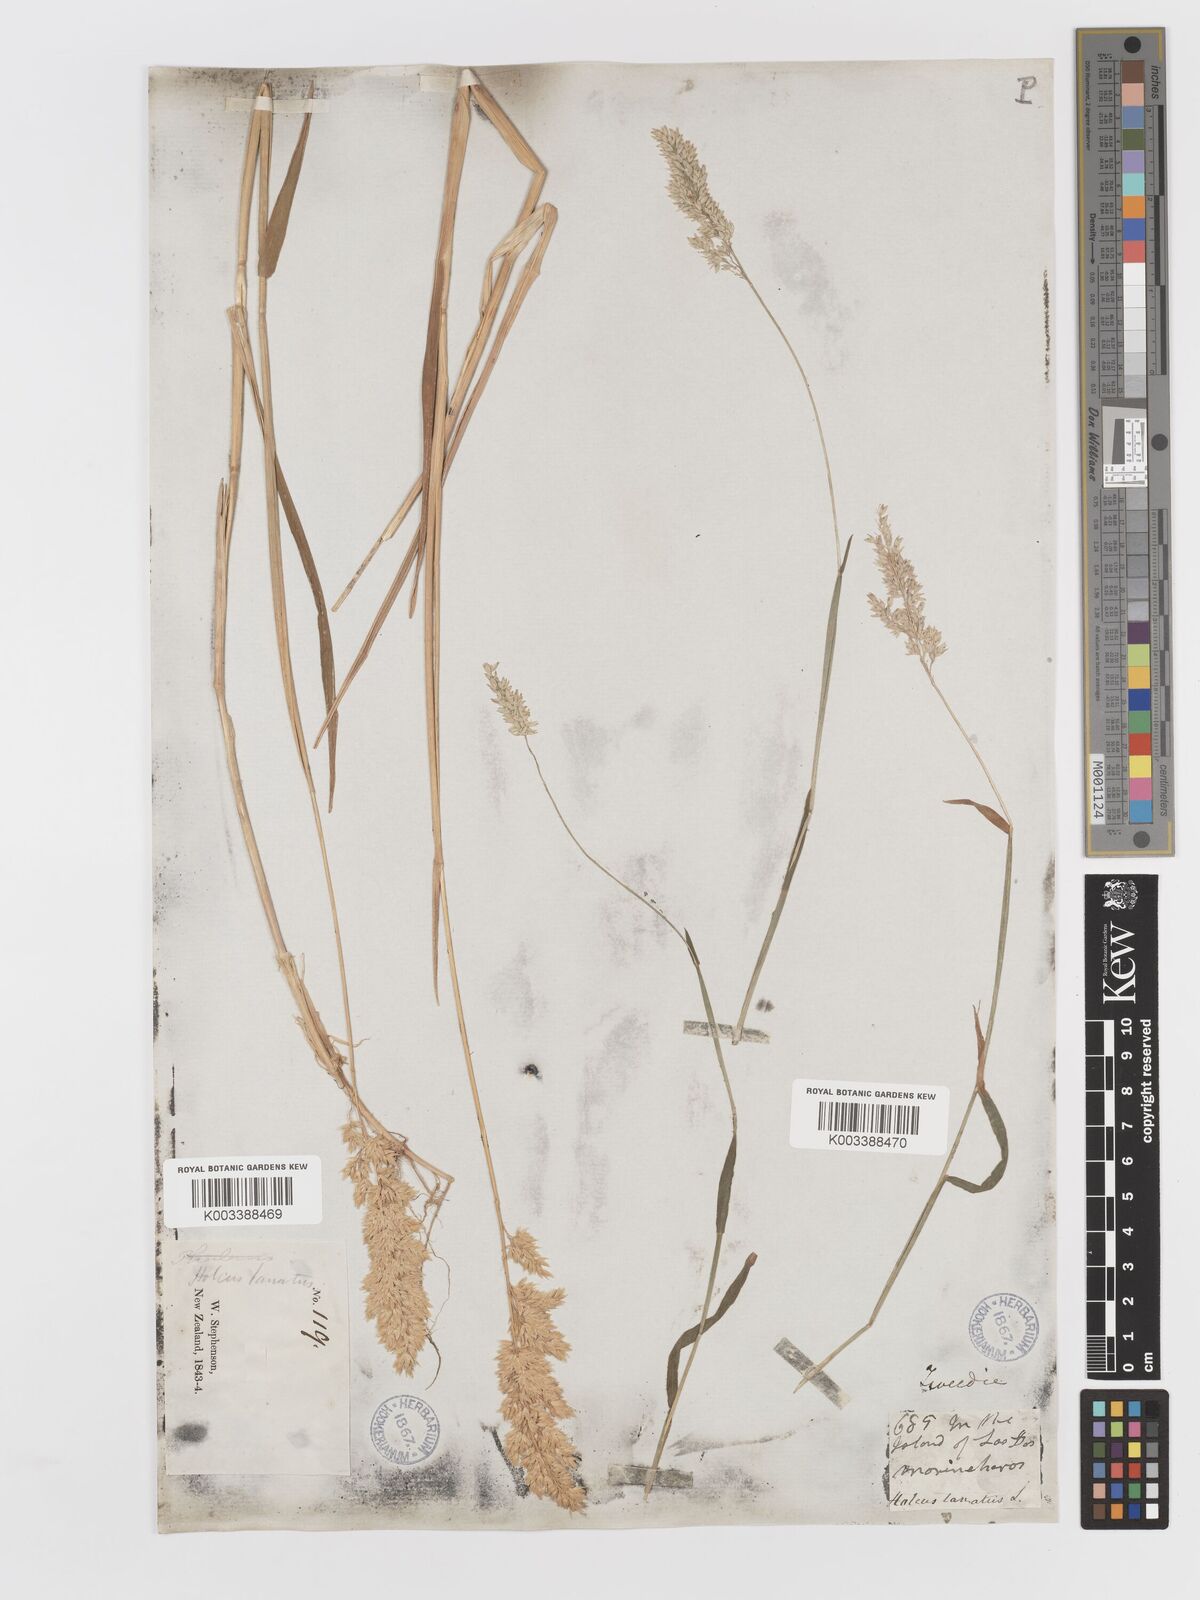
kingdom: Plantae
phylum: Tracheophyta
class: Liliopsida
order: Poales
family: Poaceae
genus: Holcus
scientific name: Holcus lanatus
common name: Yorkshire-fog
